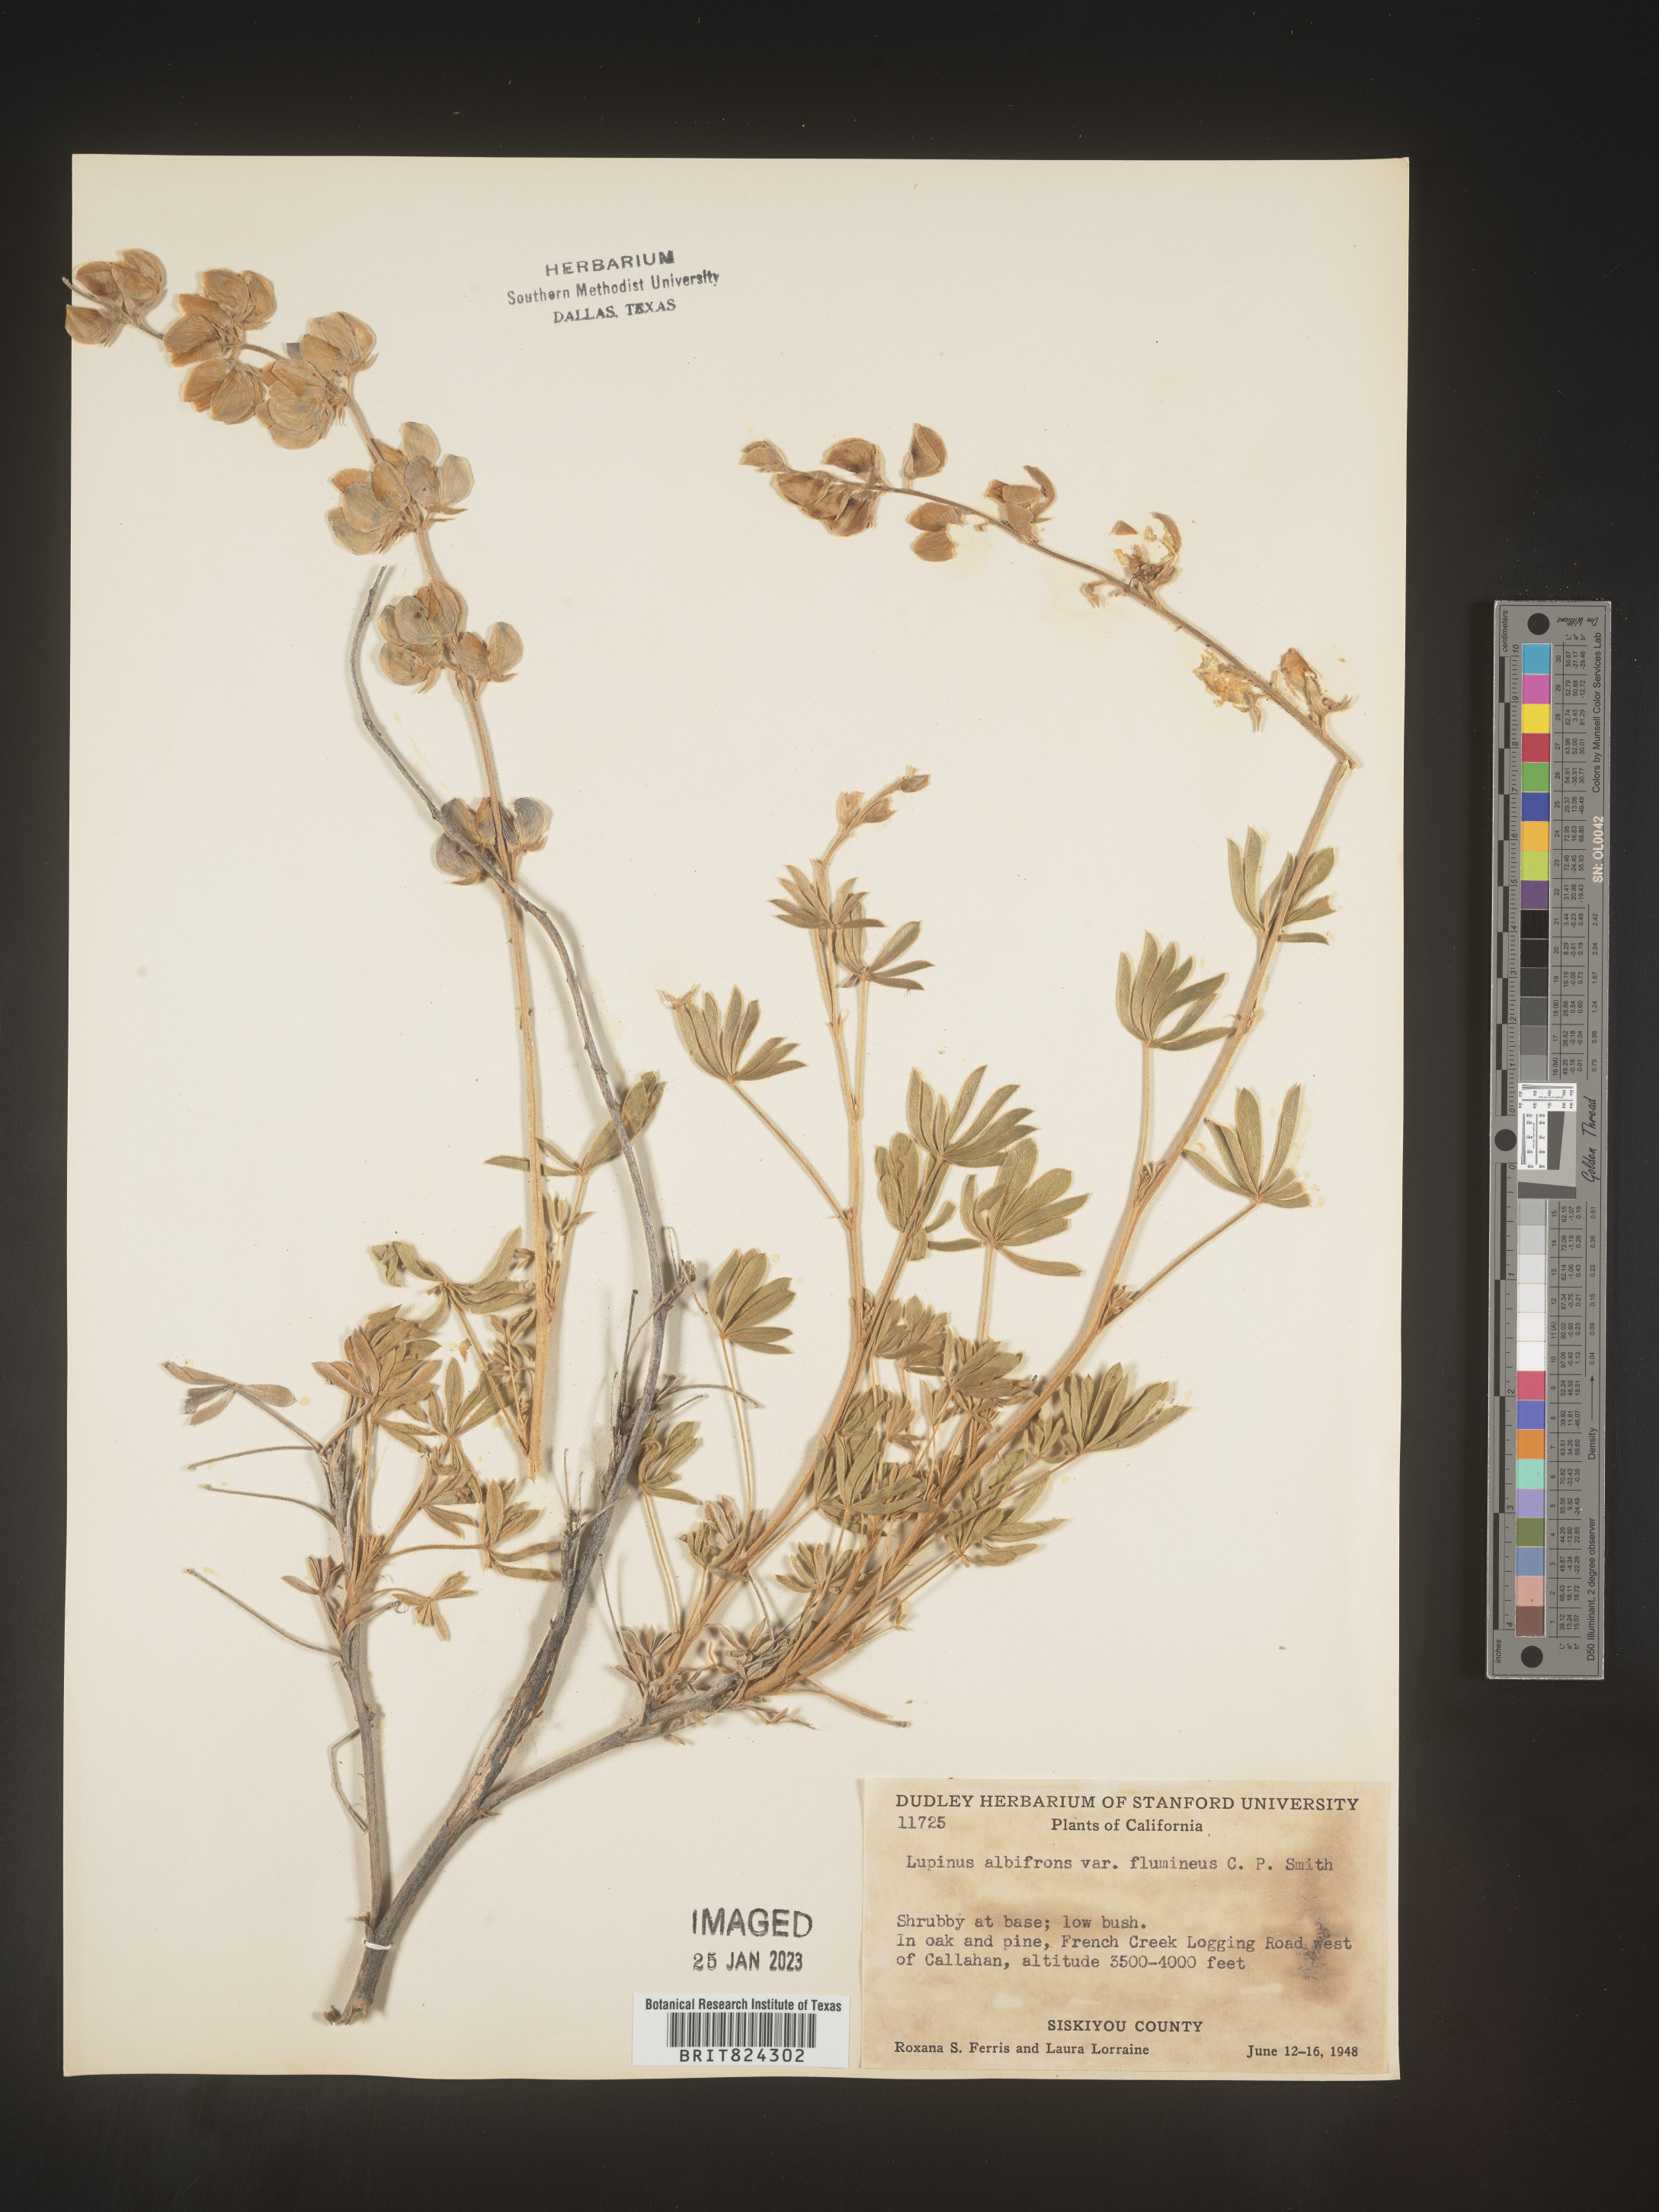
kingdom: Plantae
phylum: Tracheophyta
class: Magnoliopsida
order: Fabales
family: Fabaceae
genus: Lupinus
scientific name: Lupinus albifrons
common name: Foothill lupine
